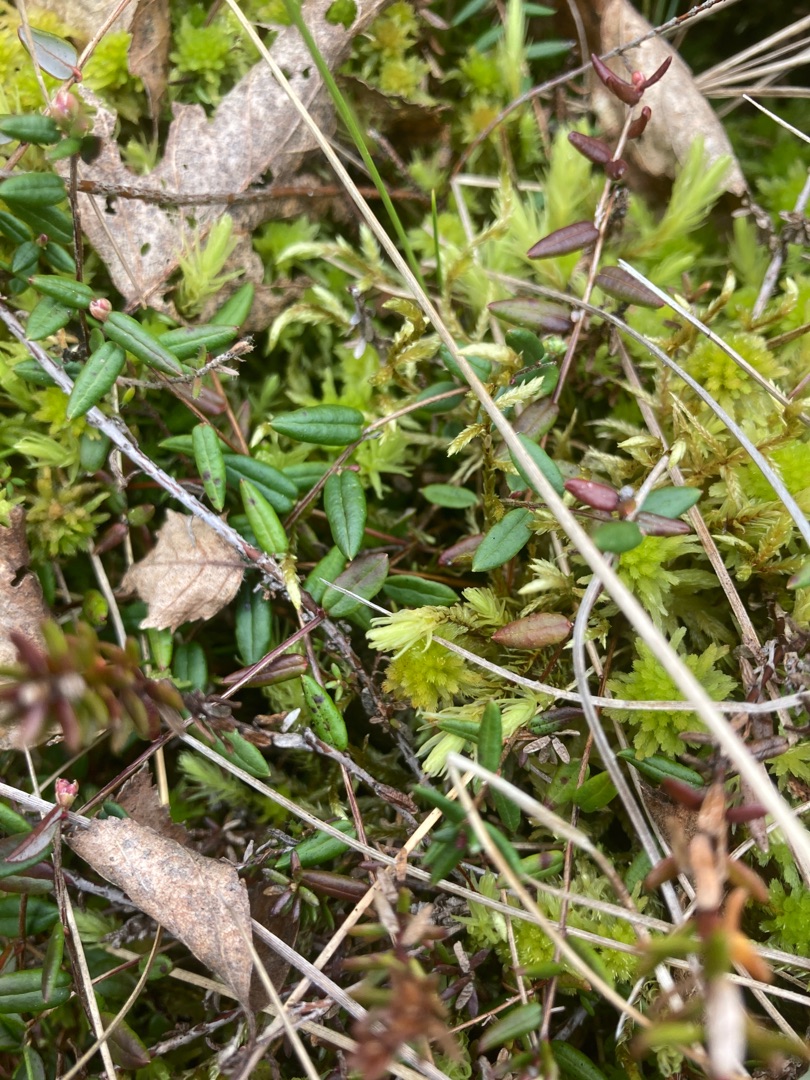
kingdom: Plantae
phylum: Tracheophyta
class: Magnoliopsida
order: Ericales
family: Ericaceae
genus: Vaccinium
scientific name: Vaccinium oxycoccos
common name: Tranebær
